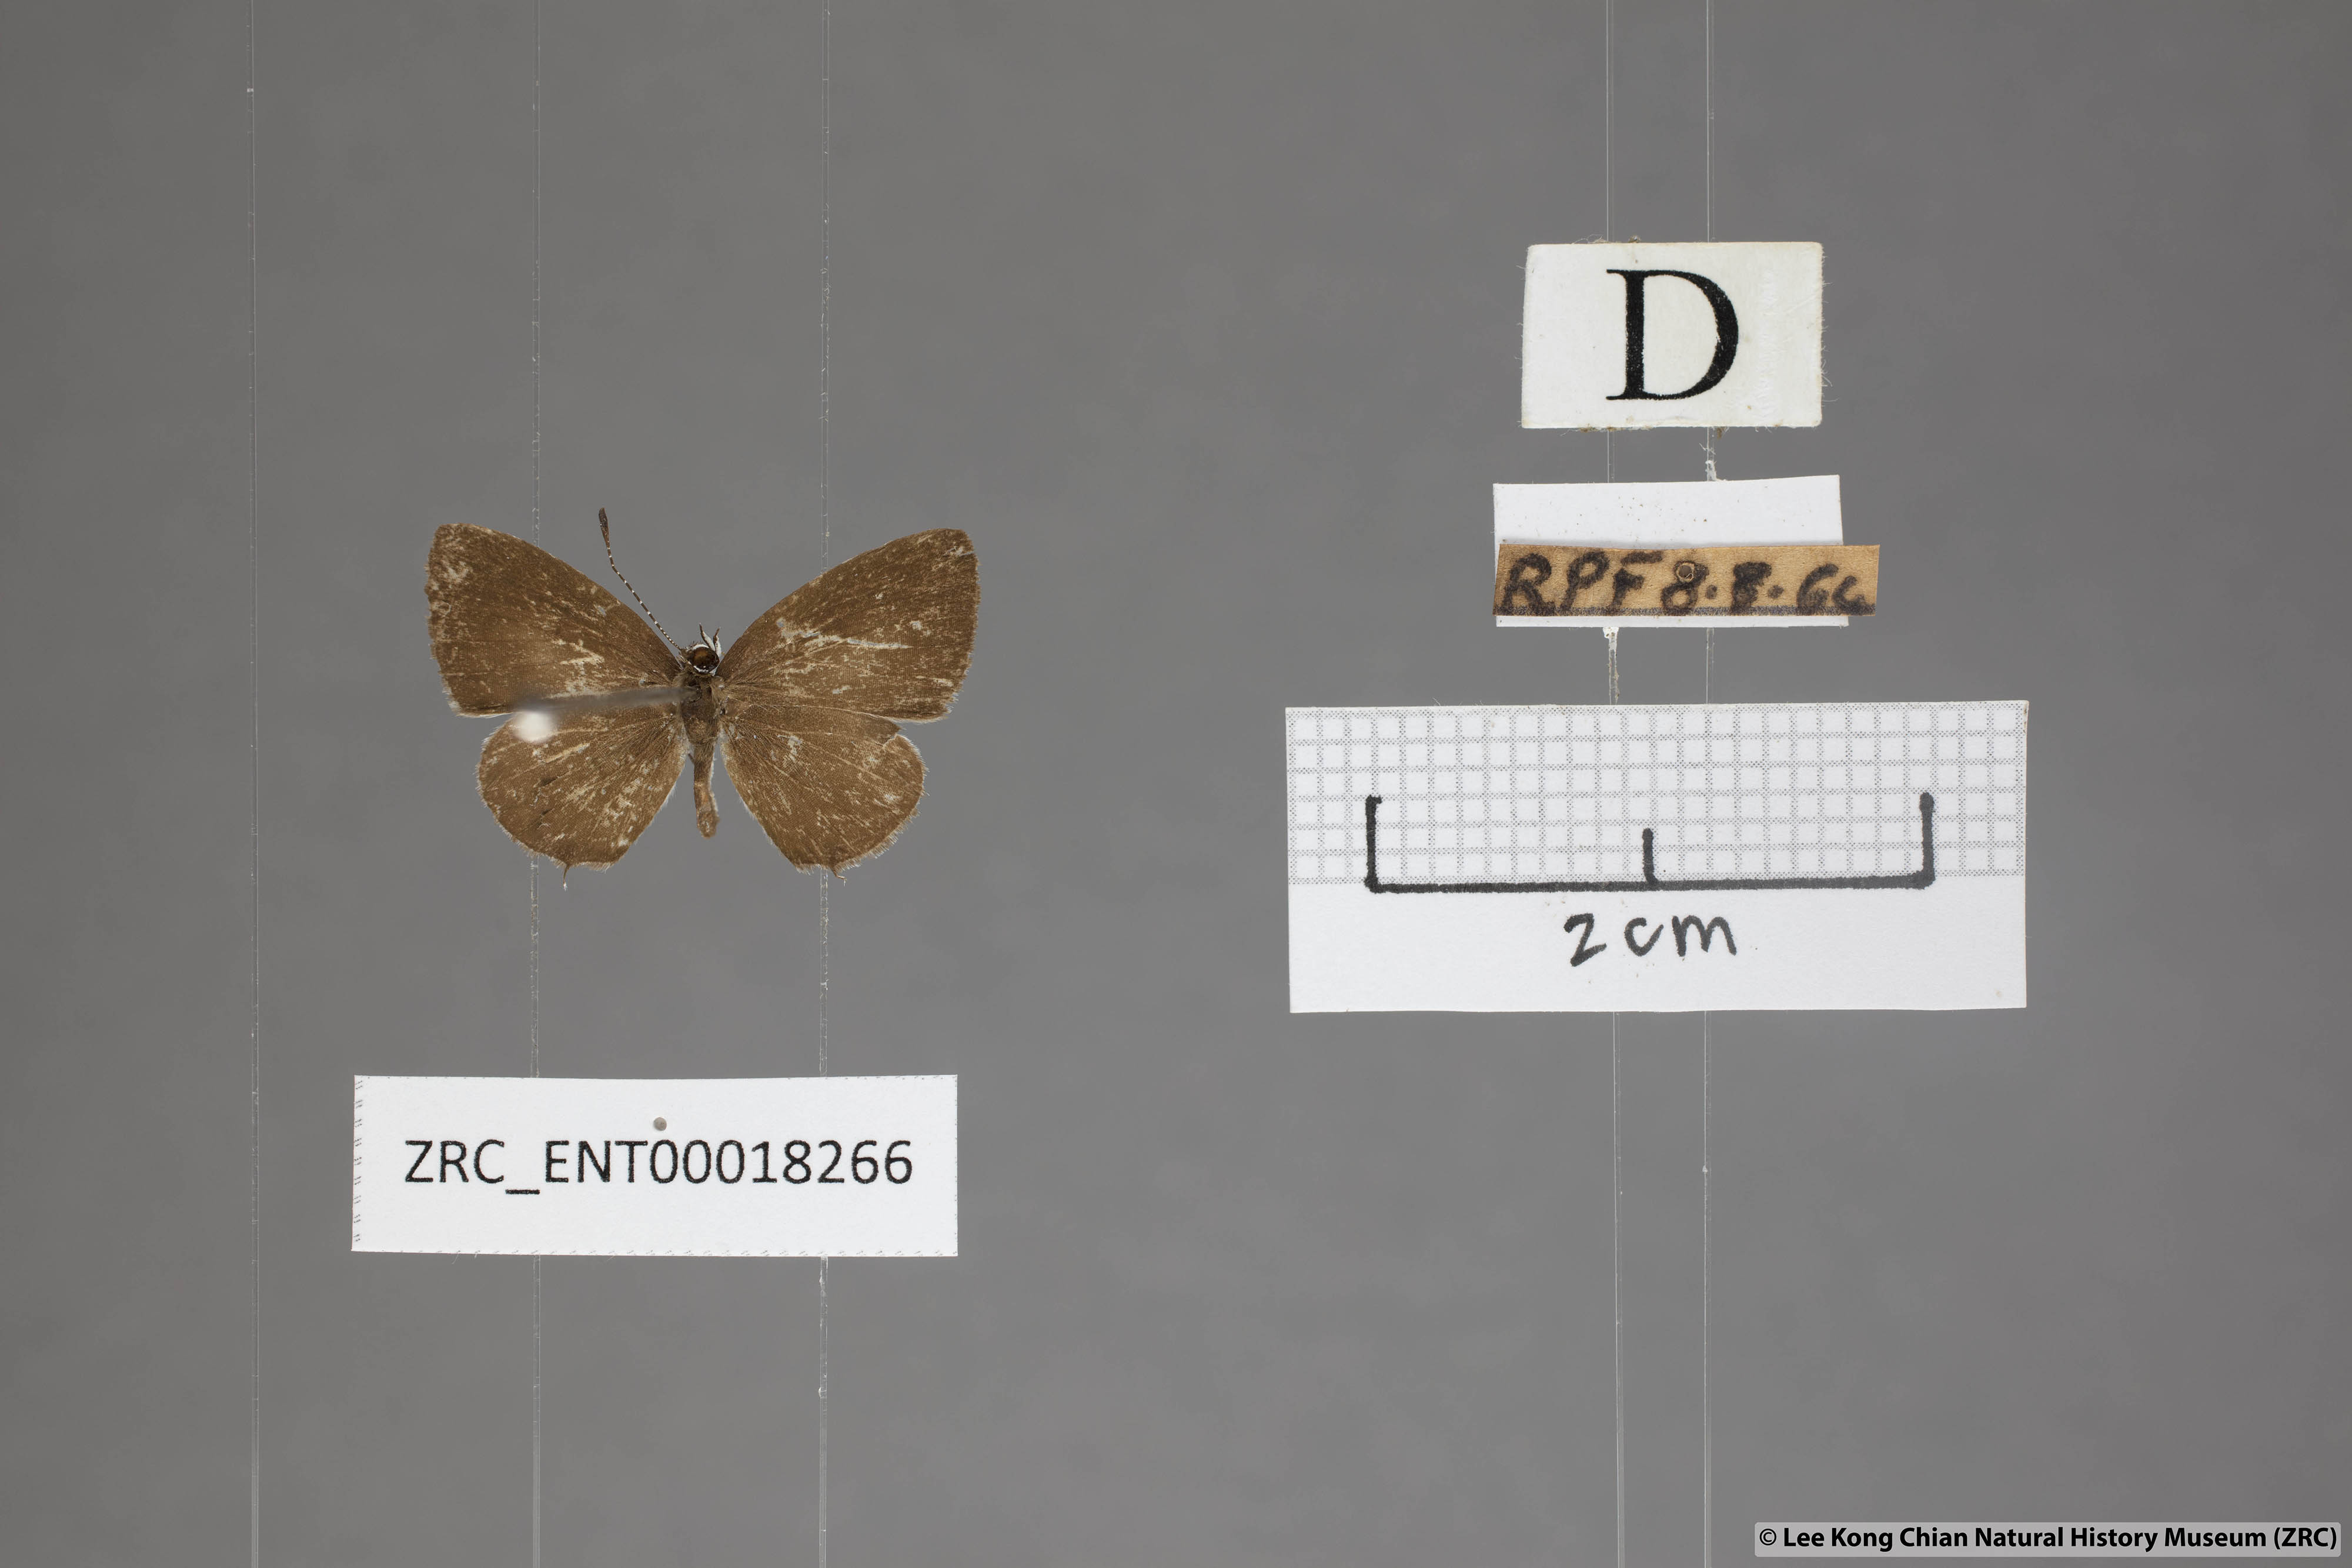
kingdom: Animalia
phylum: Arthropoda
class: Insecta
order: Lepidoptera
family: Lycaenidae
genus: Megisba
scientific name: Megisba malaya
